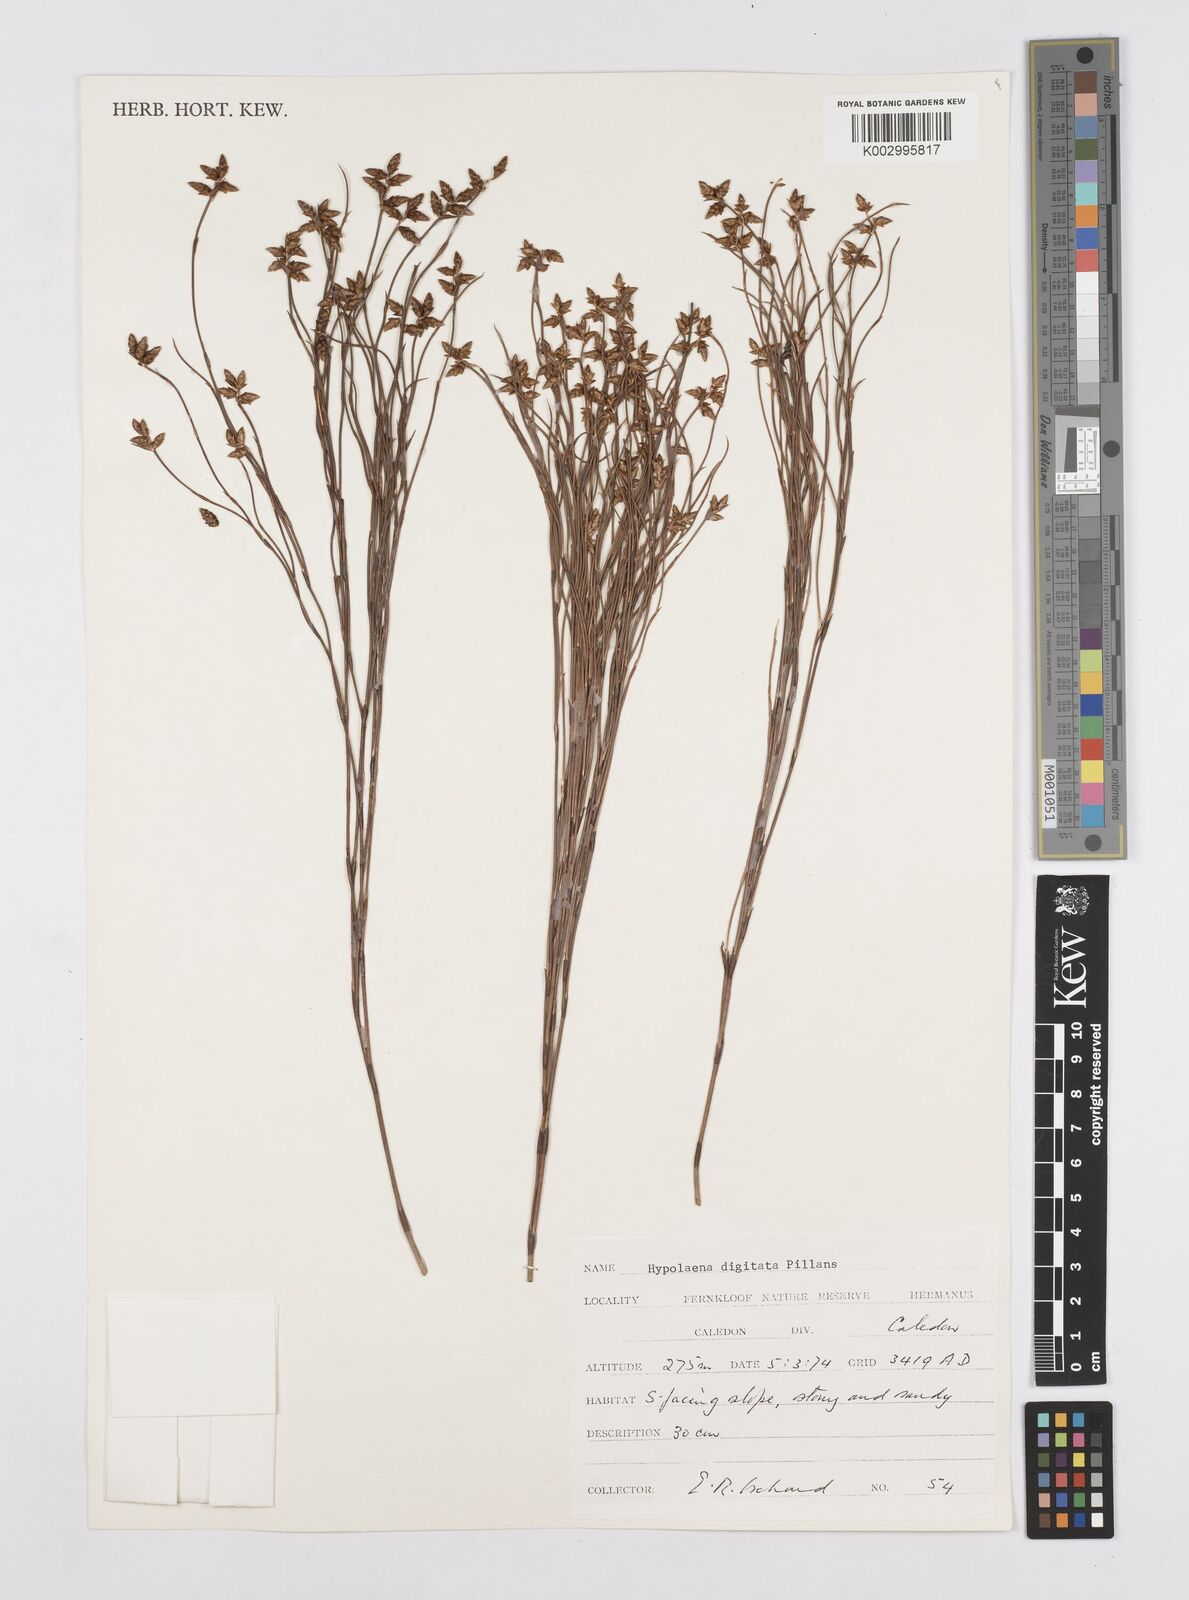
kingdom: Plantae
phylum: Tracheophyta
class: Liliopsida
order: Poales
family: Restionaceae
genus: Mastersiella
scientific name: Mastersiella digitata
